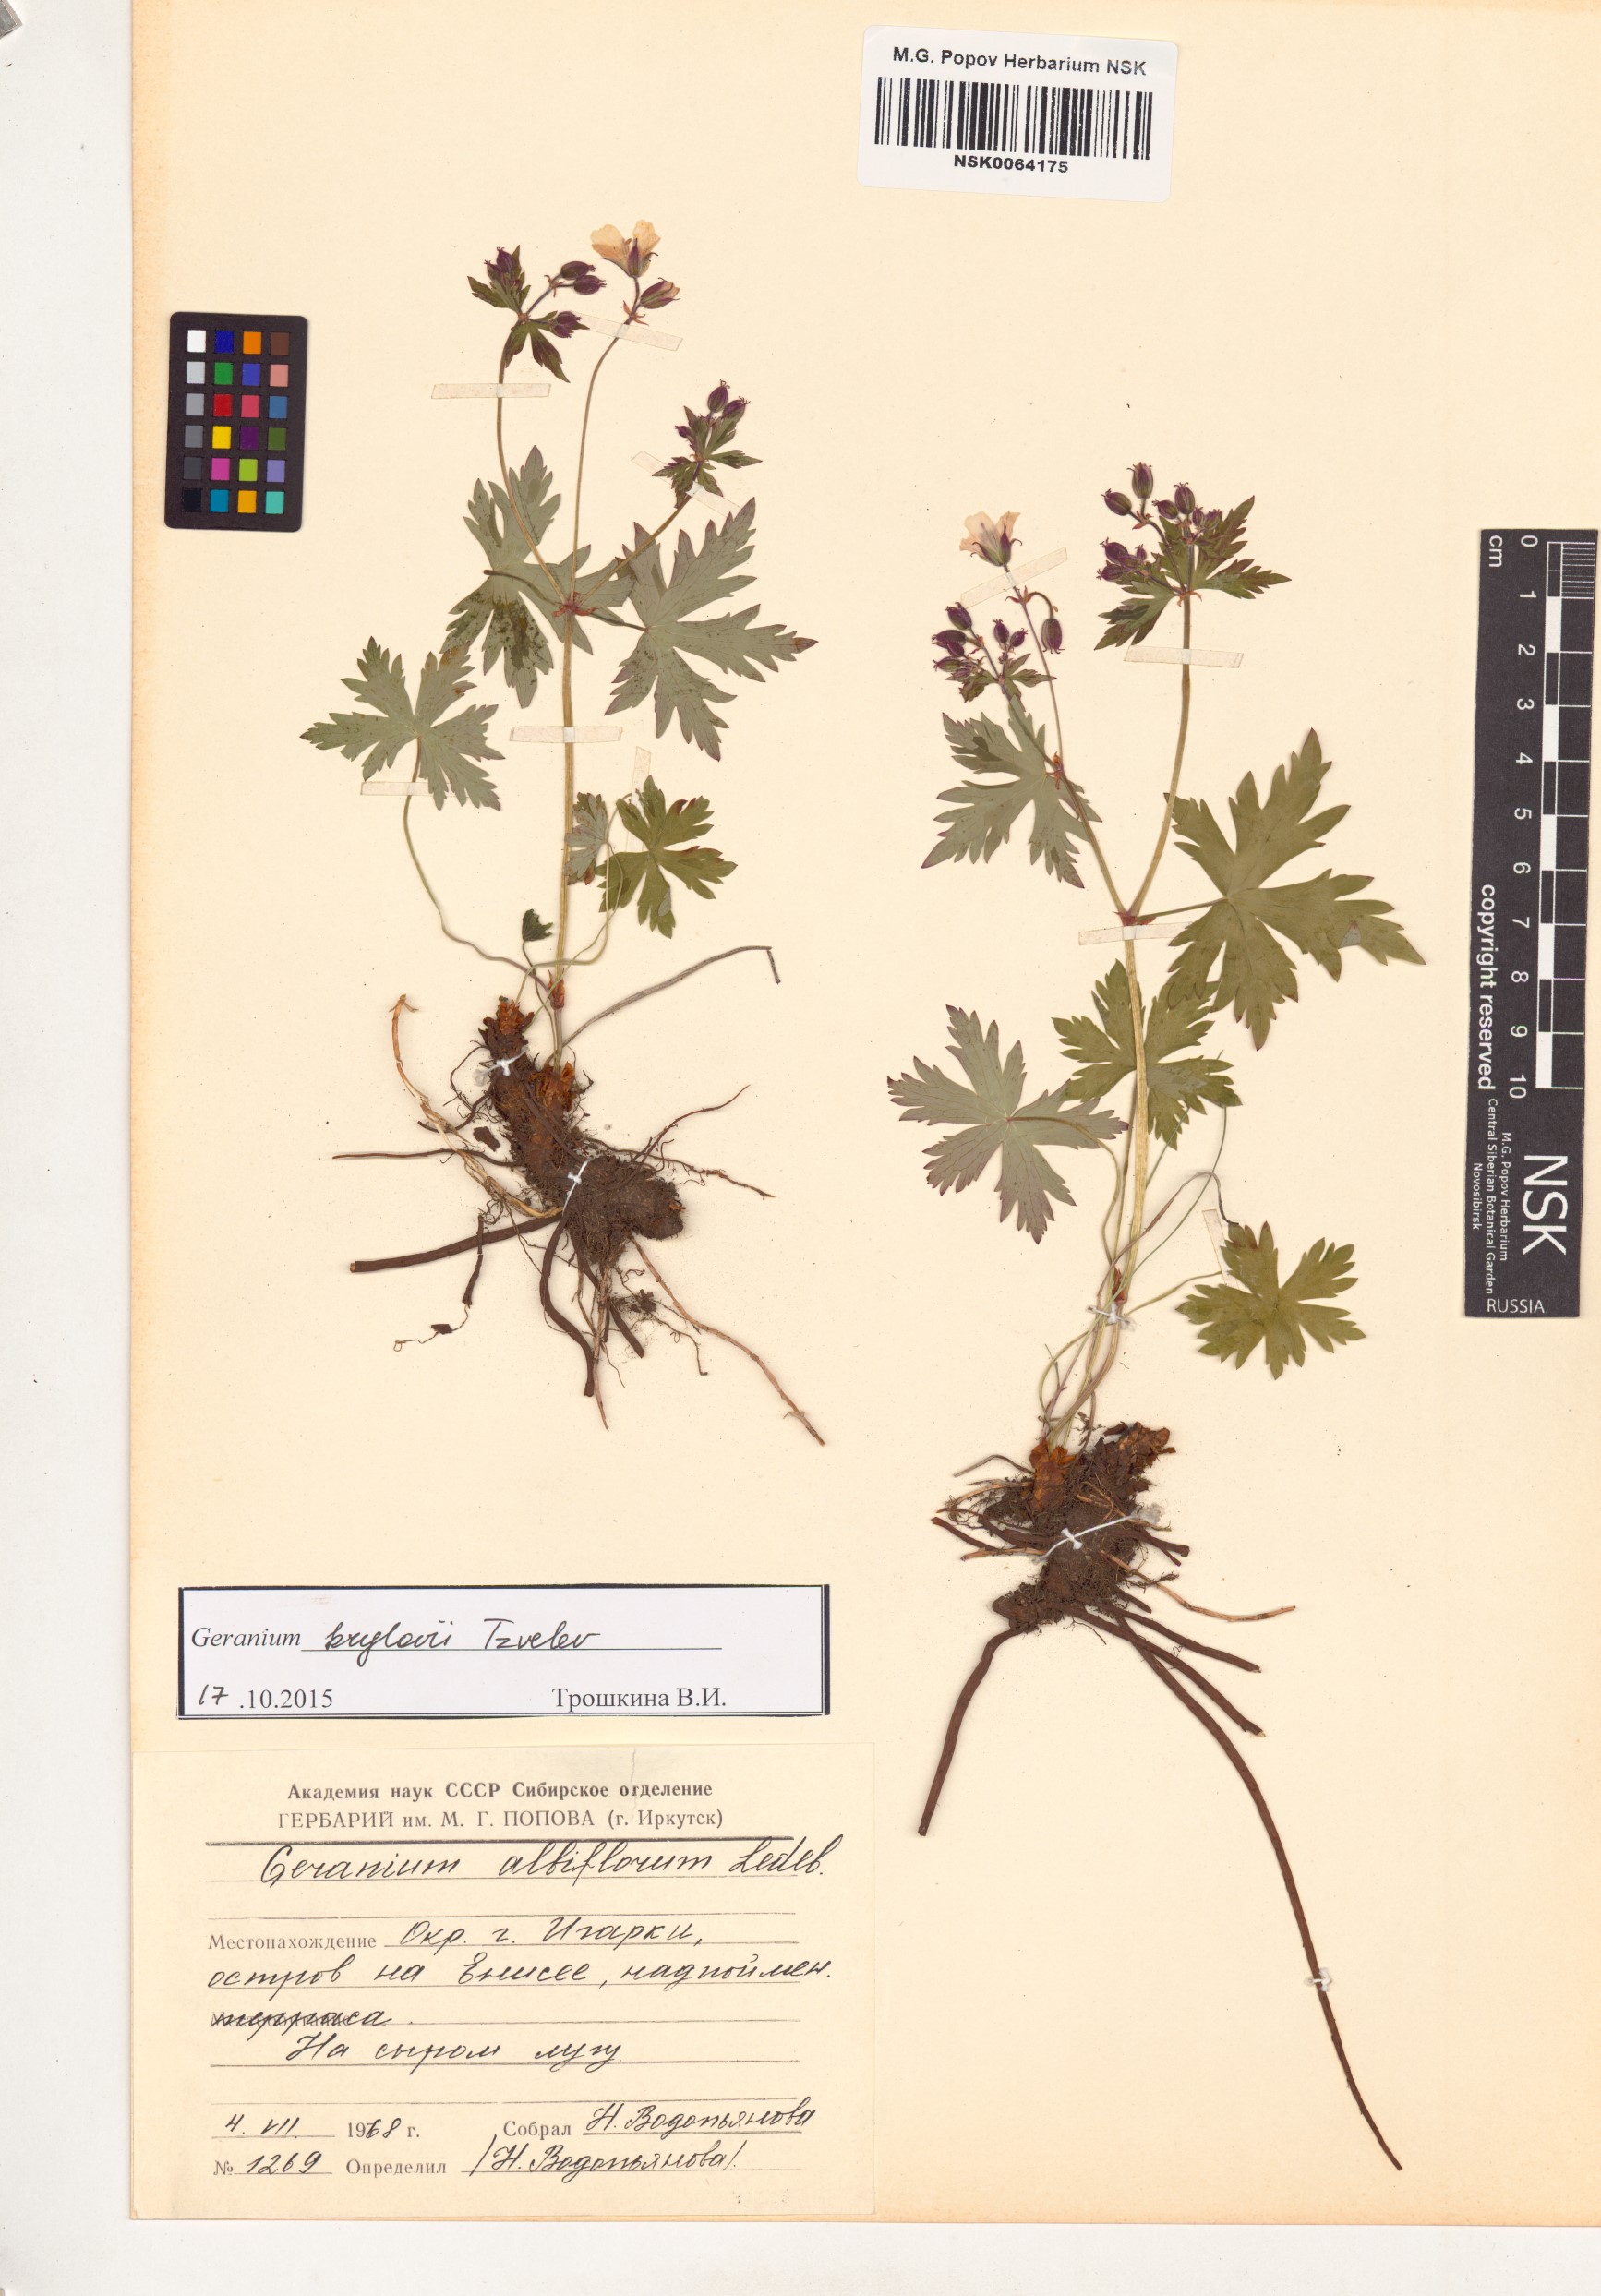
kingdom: Plantae
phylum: Tracheophyta
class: Magnoliopsida
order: Geraniales
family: Geraniaceae
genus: Geranium
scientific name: Geranium sylvaticum
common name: Wood crane's-bill
